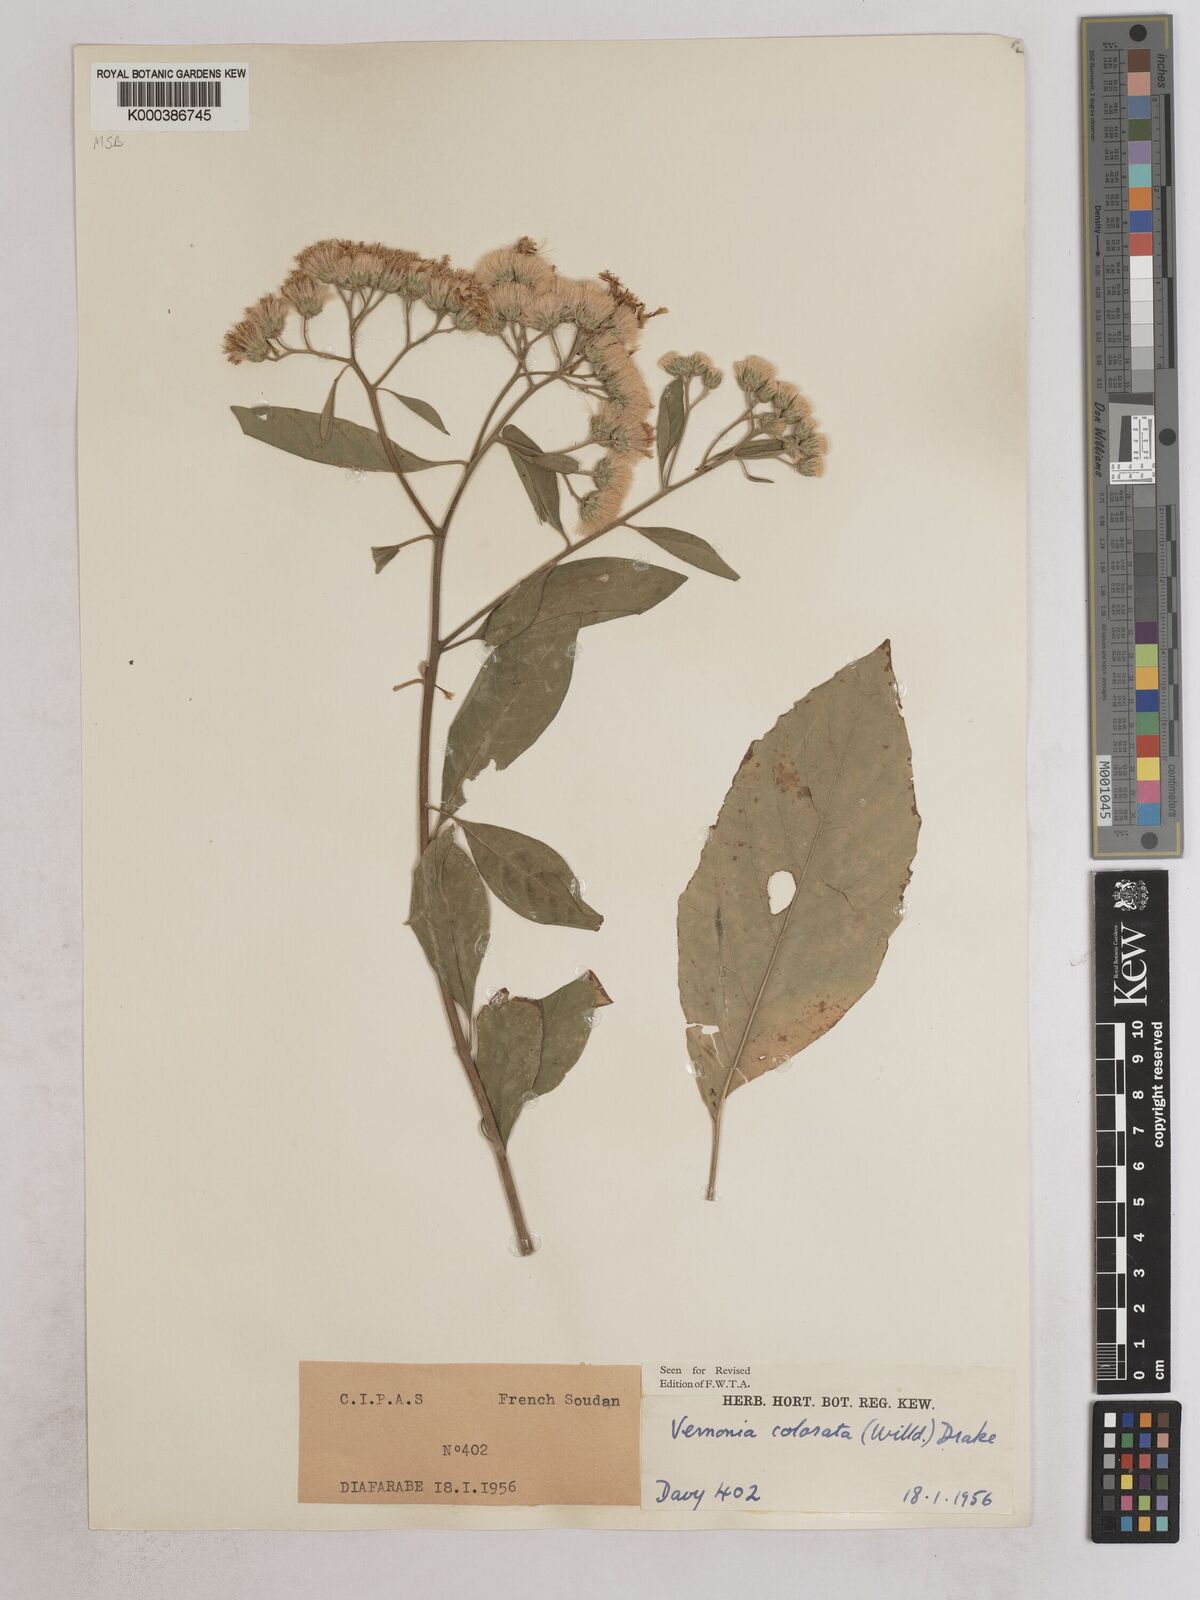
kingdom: Plantae
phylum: Tracheophyta
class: Magnoliopsida
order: Asterales
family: Asteraceae
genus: Vernonia
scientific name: Vernonia colorata
